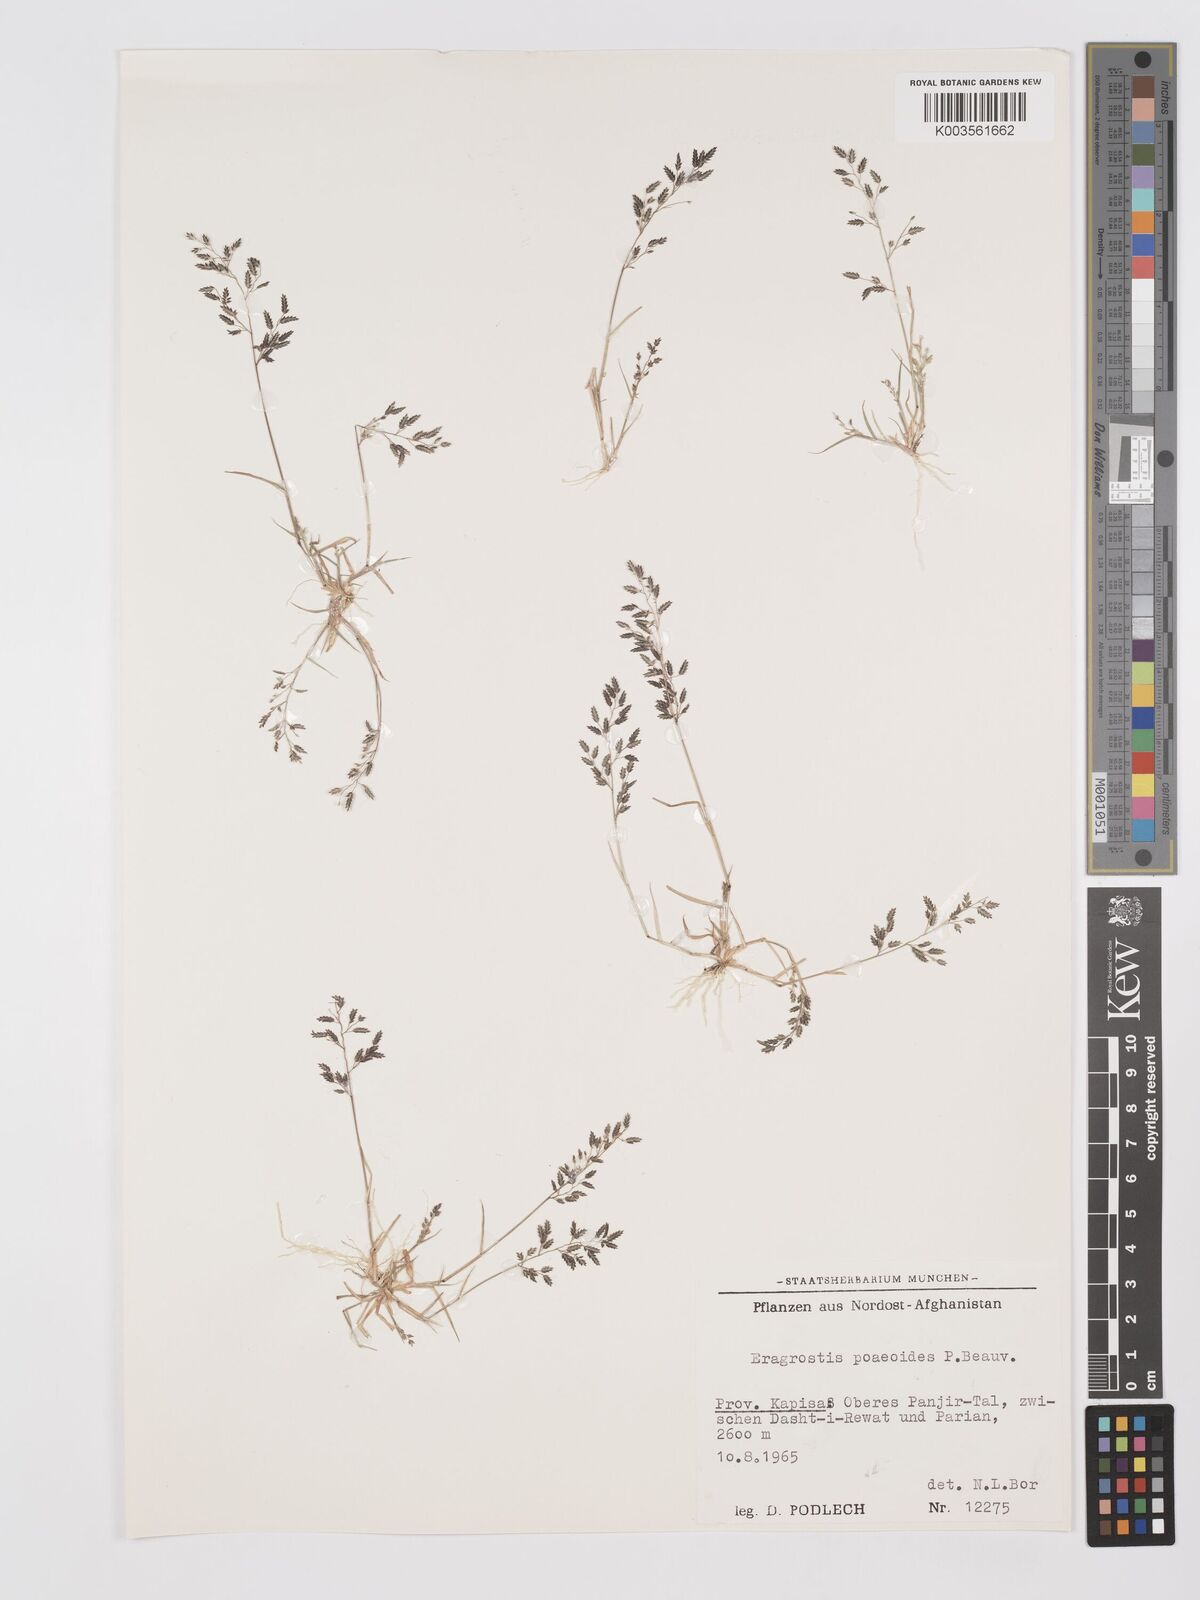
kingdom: Plantae
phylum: Tracheophyta
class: Liliopsida
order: Poales
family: Poaceae
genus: Eragrostis
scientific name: Eragrostis minor
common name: Small love-grass
